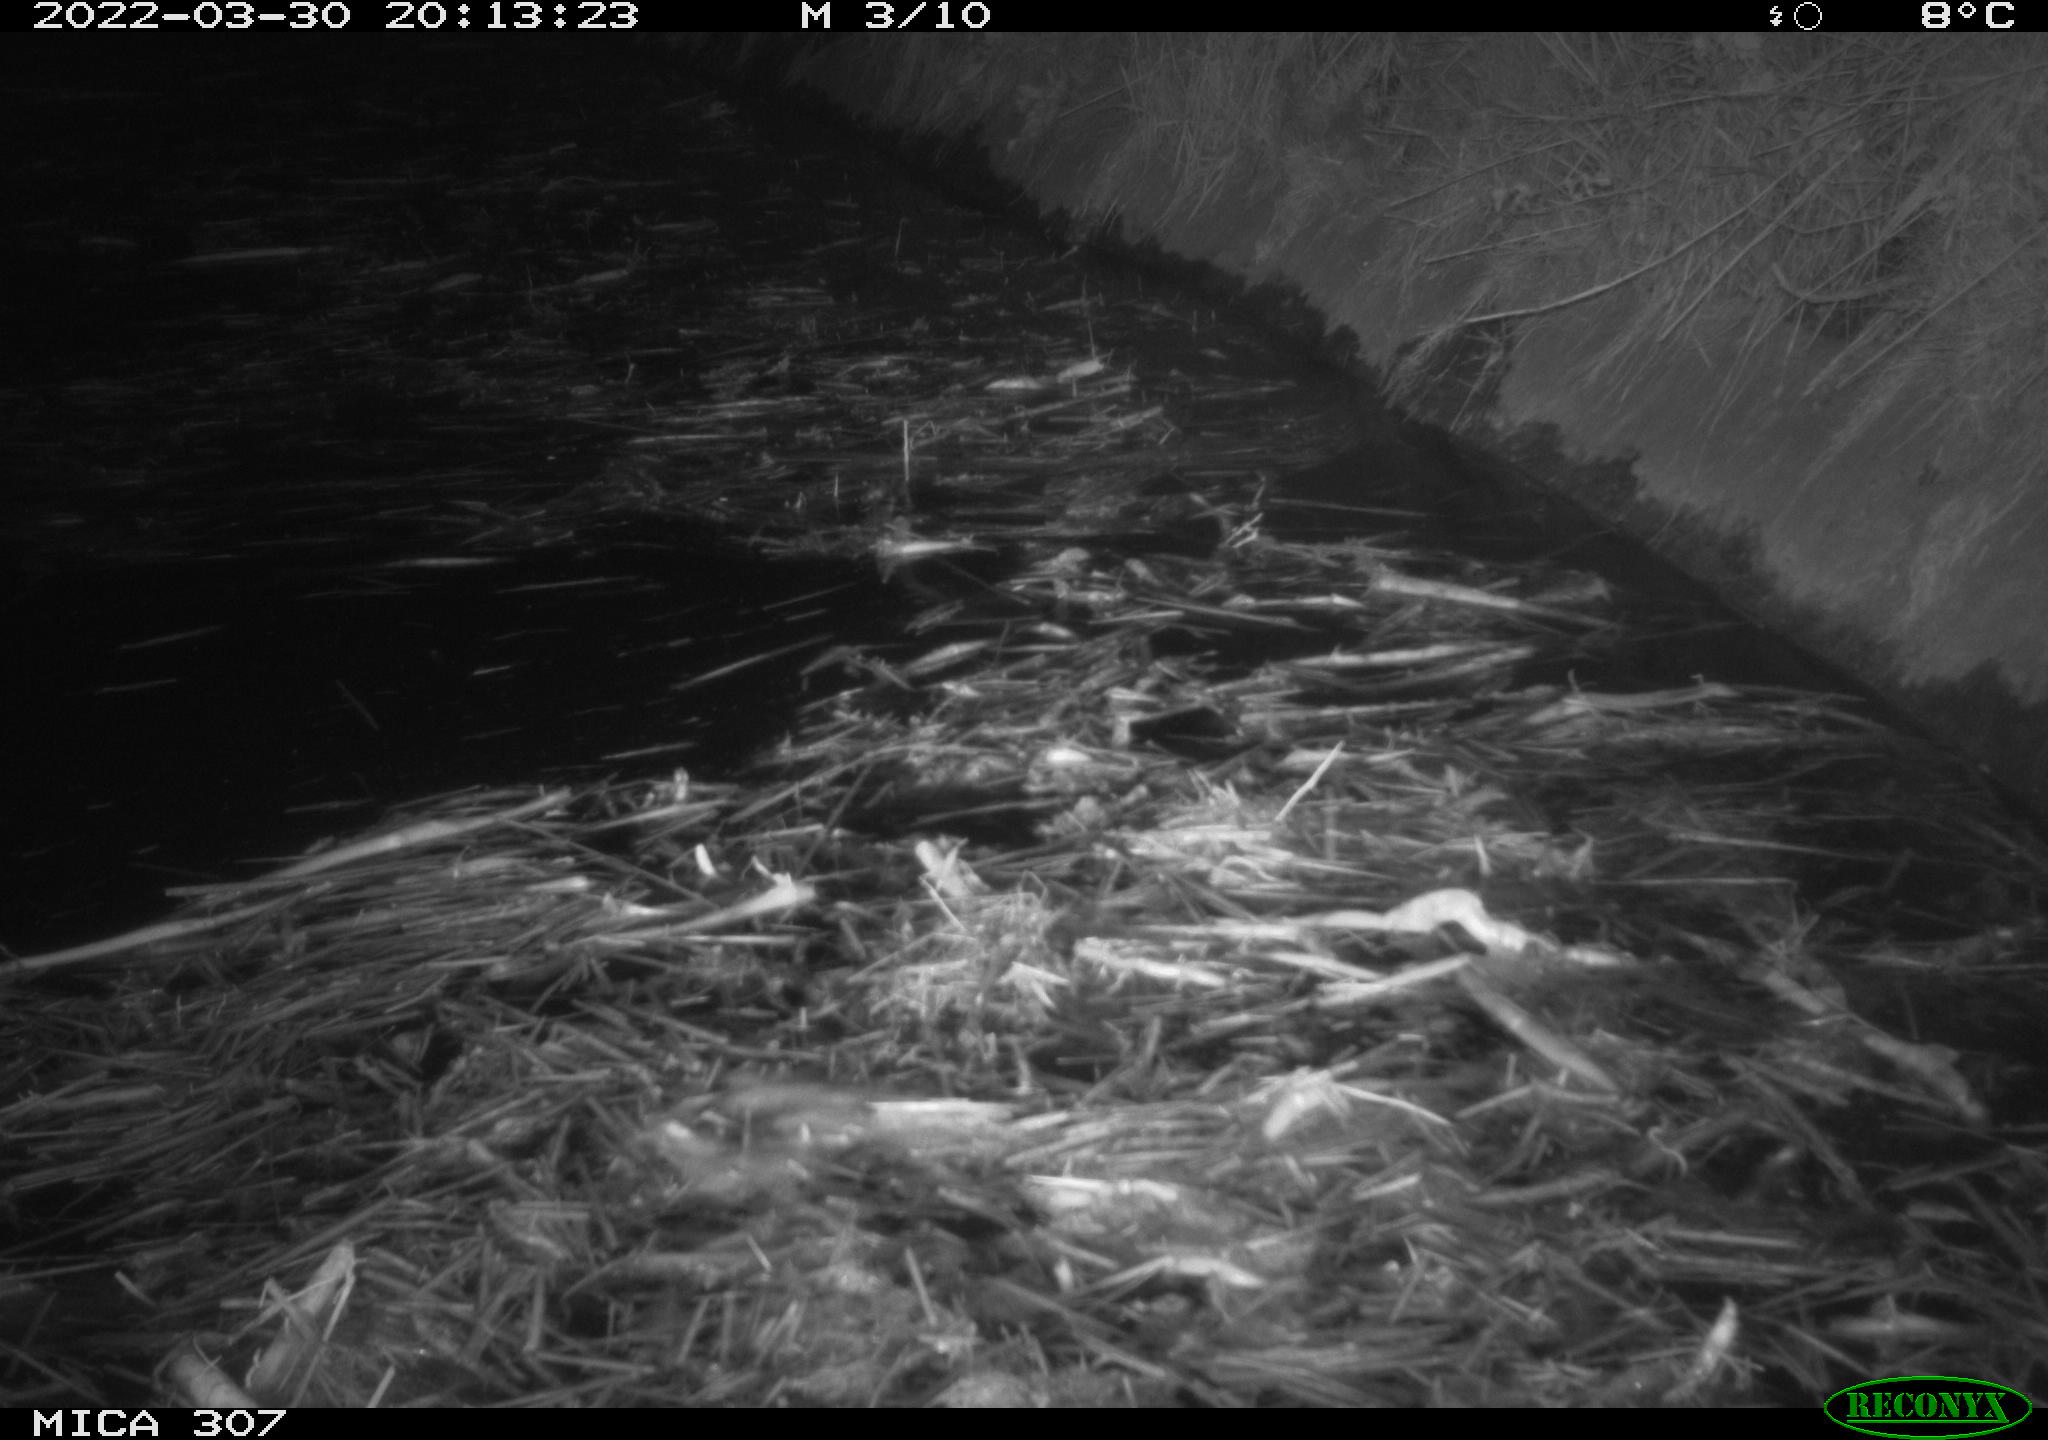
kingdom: Animalia
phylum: Chordata
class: Mammalia
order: Rodentia
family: Muridae
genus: Rattus
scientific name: Rattus norvegicus
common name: Brown rat
